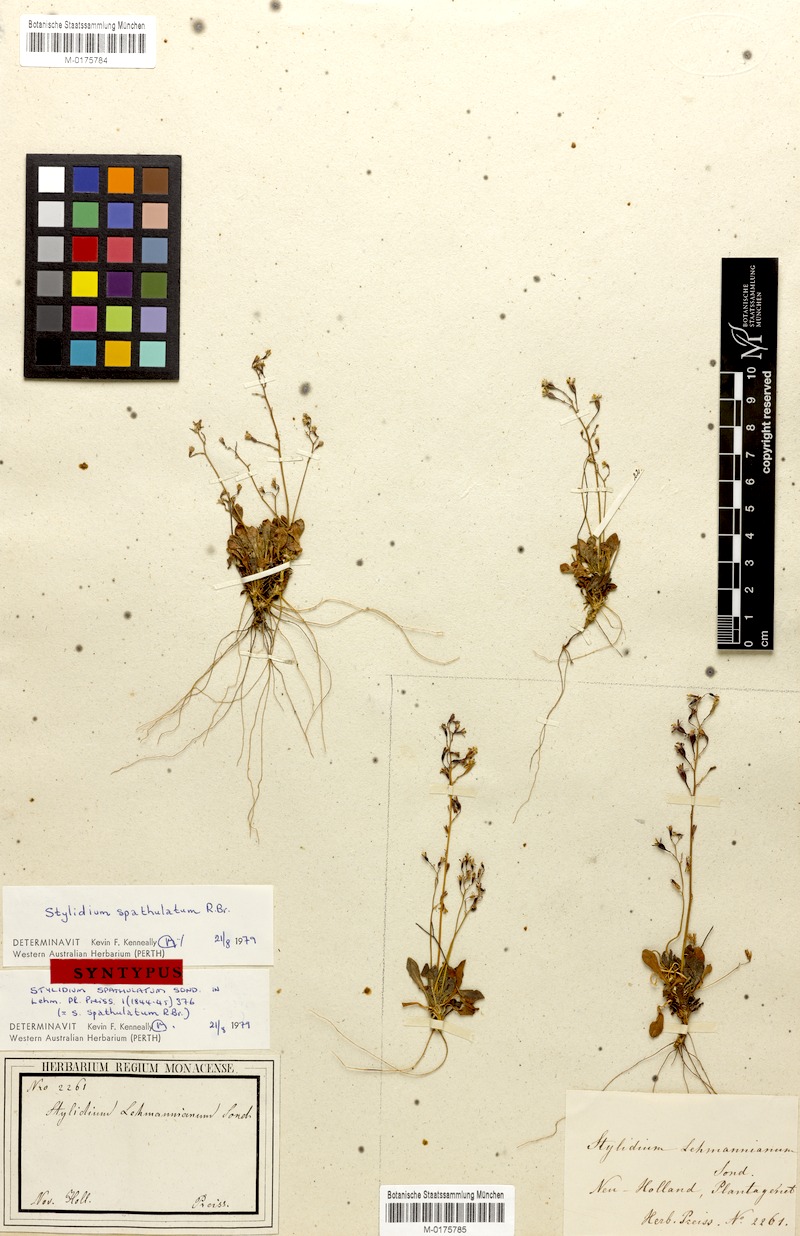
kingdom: Plantae
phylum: Tracheophyta
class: Magnoliopsida
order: Asterales
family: Stylidiaceae
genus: Stylidium
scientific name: Stylidium spathulatum
